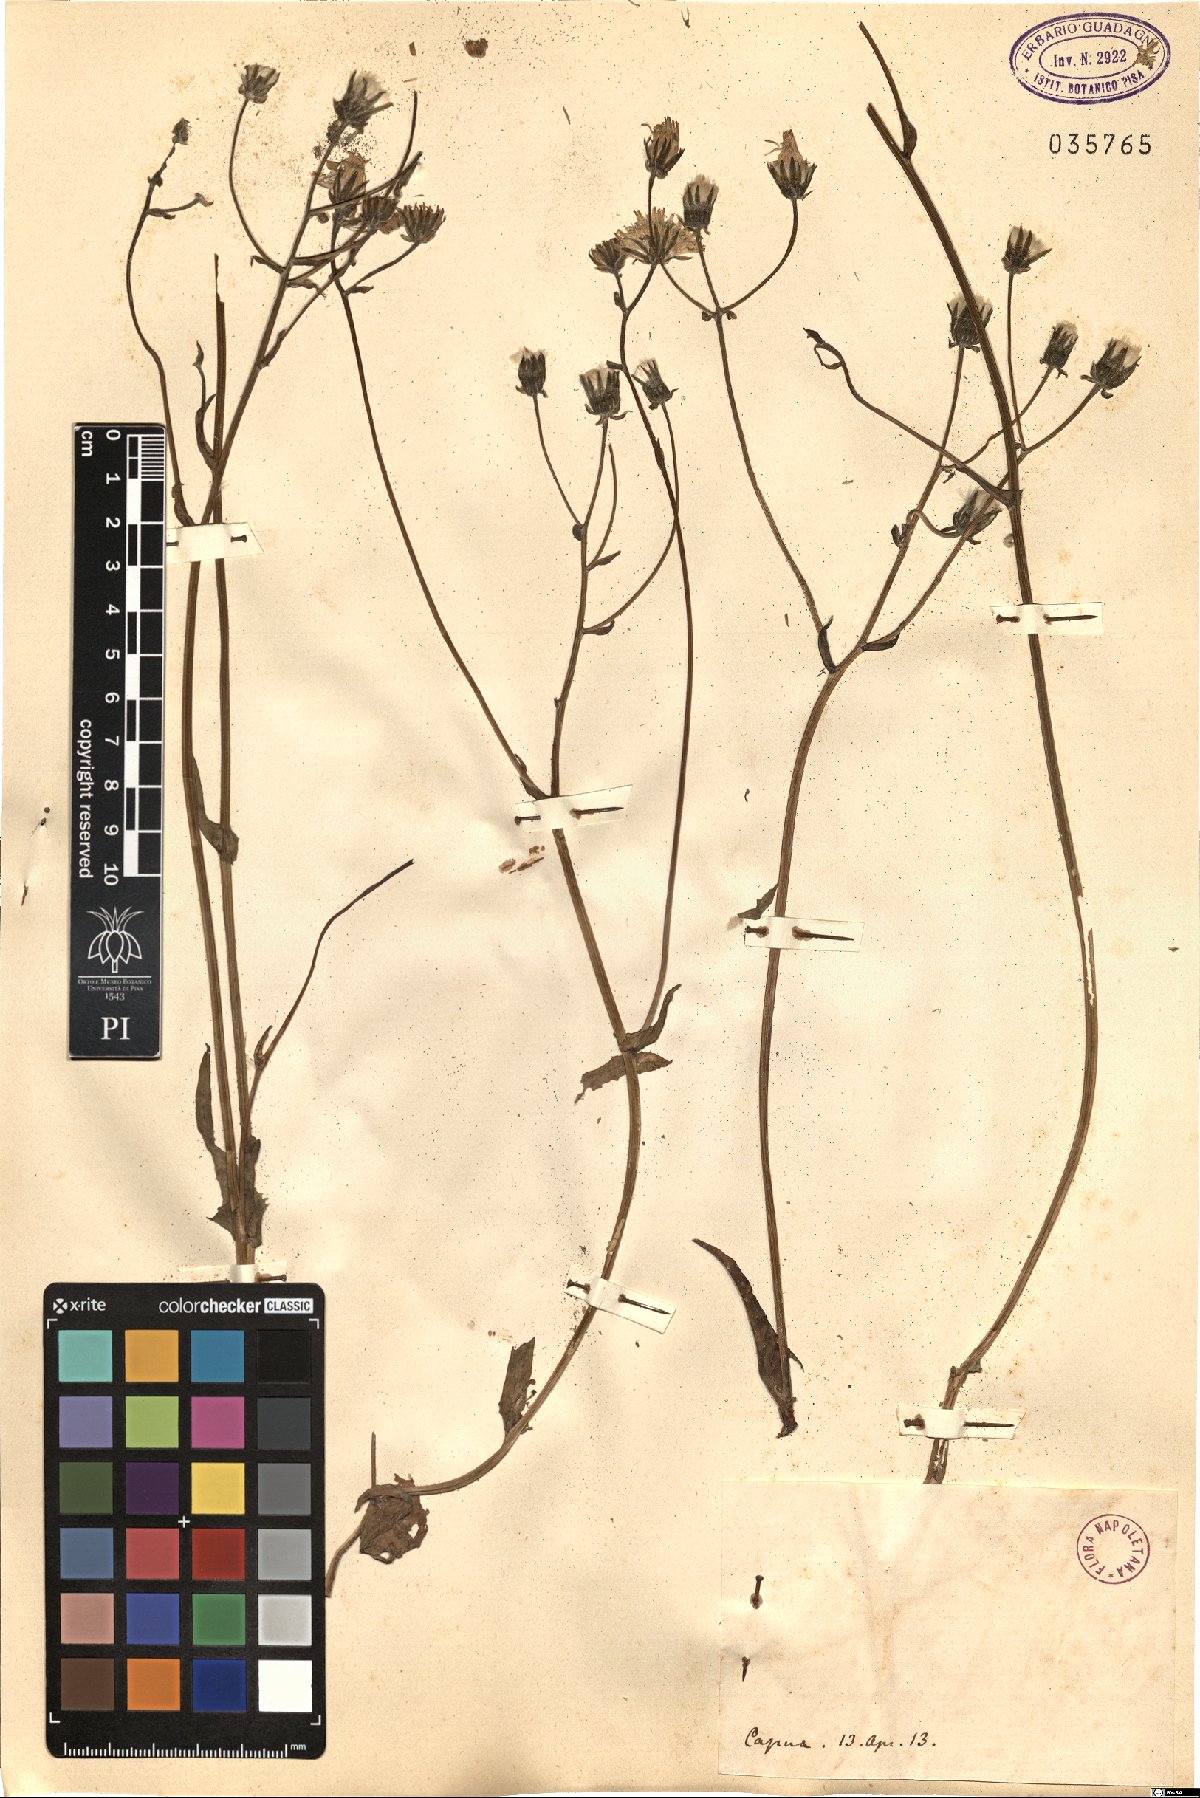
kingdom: Plantae
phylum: Tracheophyta
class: Magnoliopsida
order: Asterales
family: Asteraceae
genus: Crepis
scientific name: Crepis
